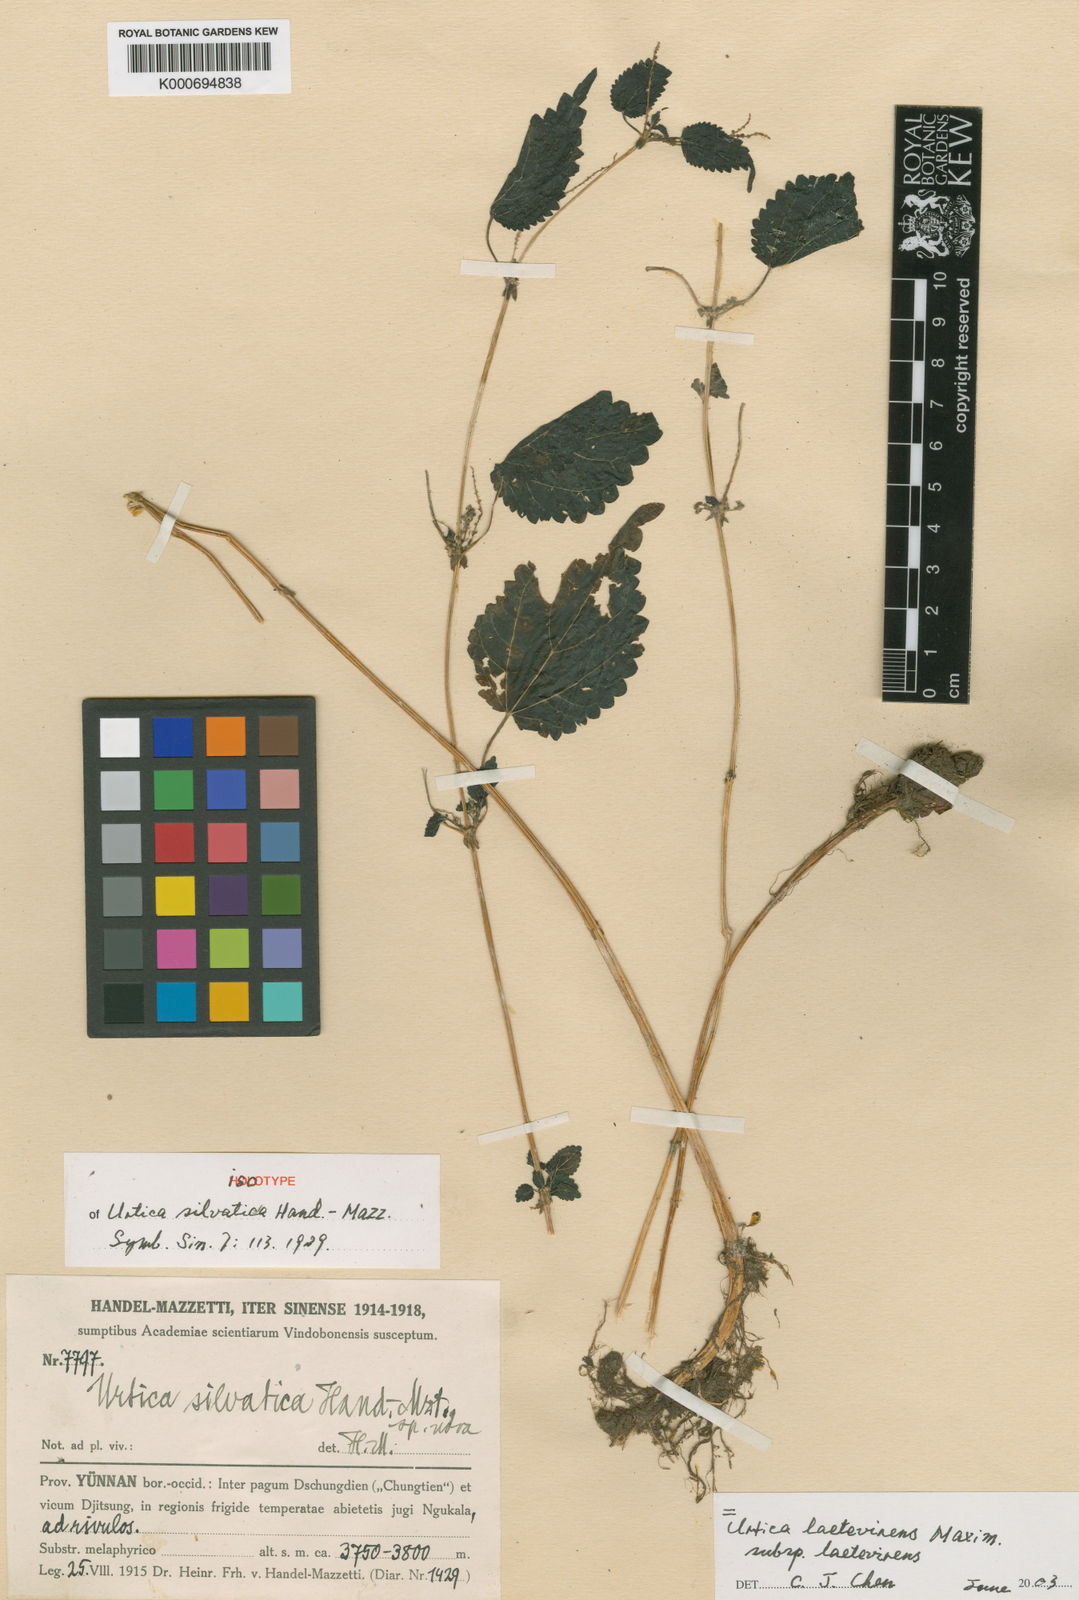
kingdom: Plantae
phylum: Tracheophyta
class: Magnoliopsida
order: Rosales
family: Urticaceae
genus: Urtica
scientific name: Urtica thunbergiana
